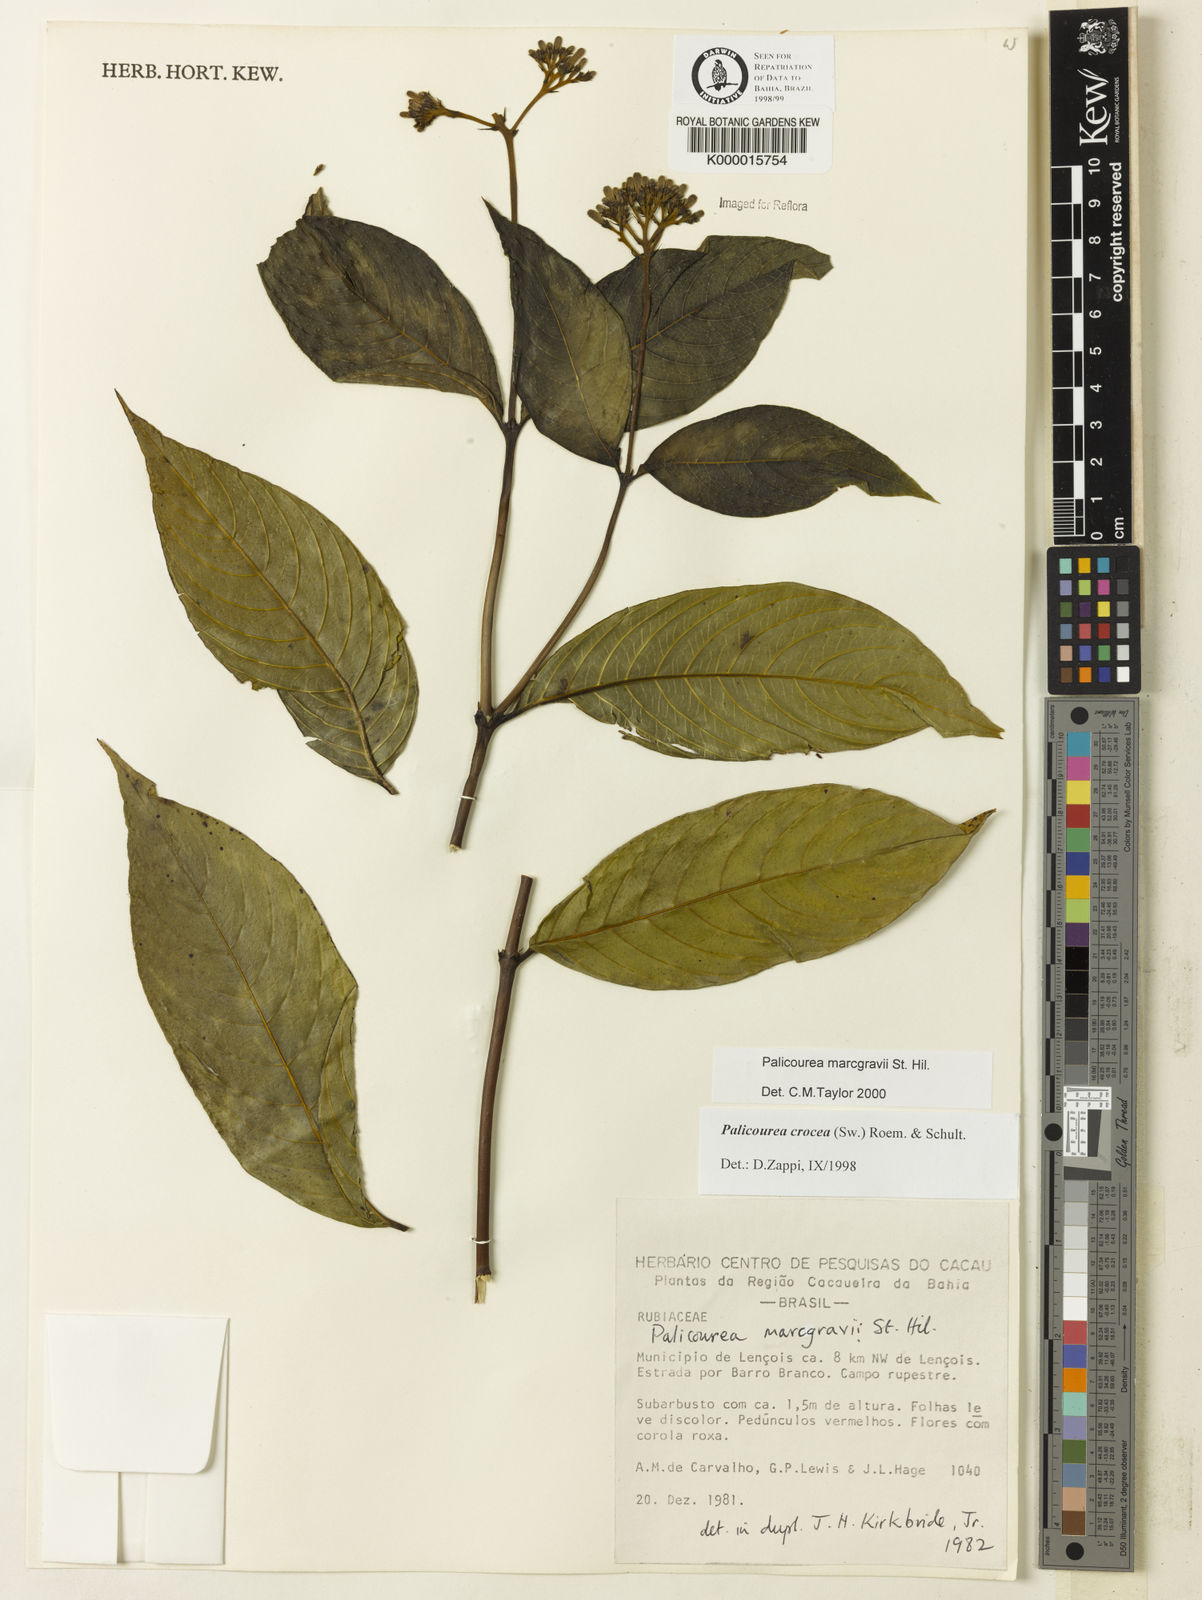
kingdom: Plantae
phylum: Tracheophyta
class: Magnoliopsida
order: Gentianales
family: Rubiaceae
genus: Palicourea
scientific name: Palicourea marcgravii
